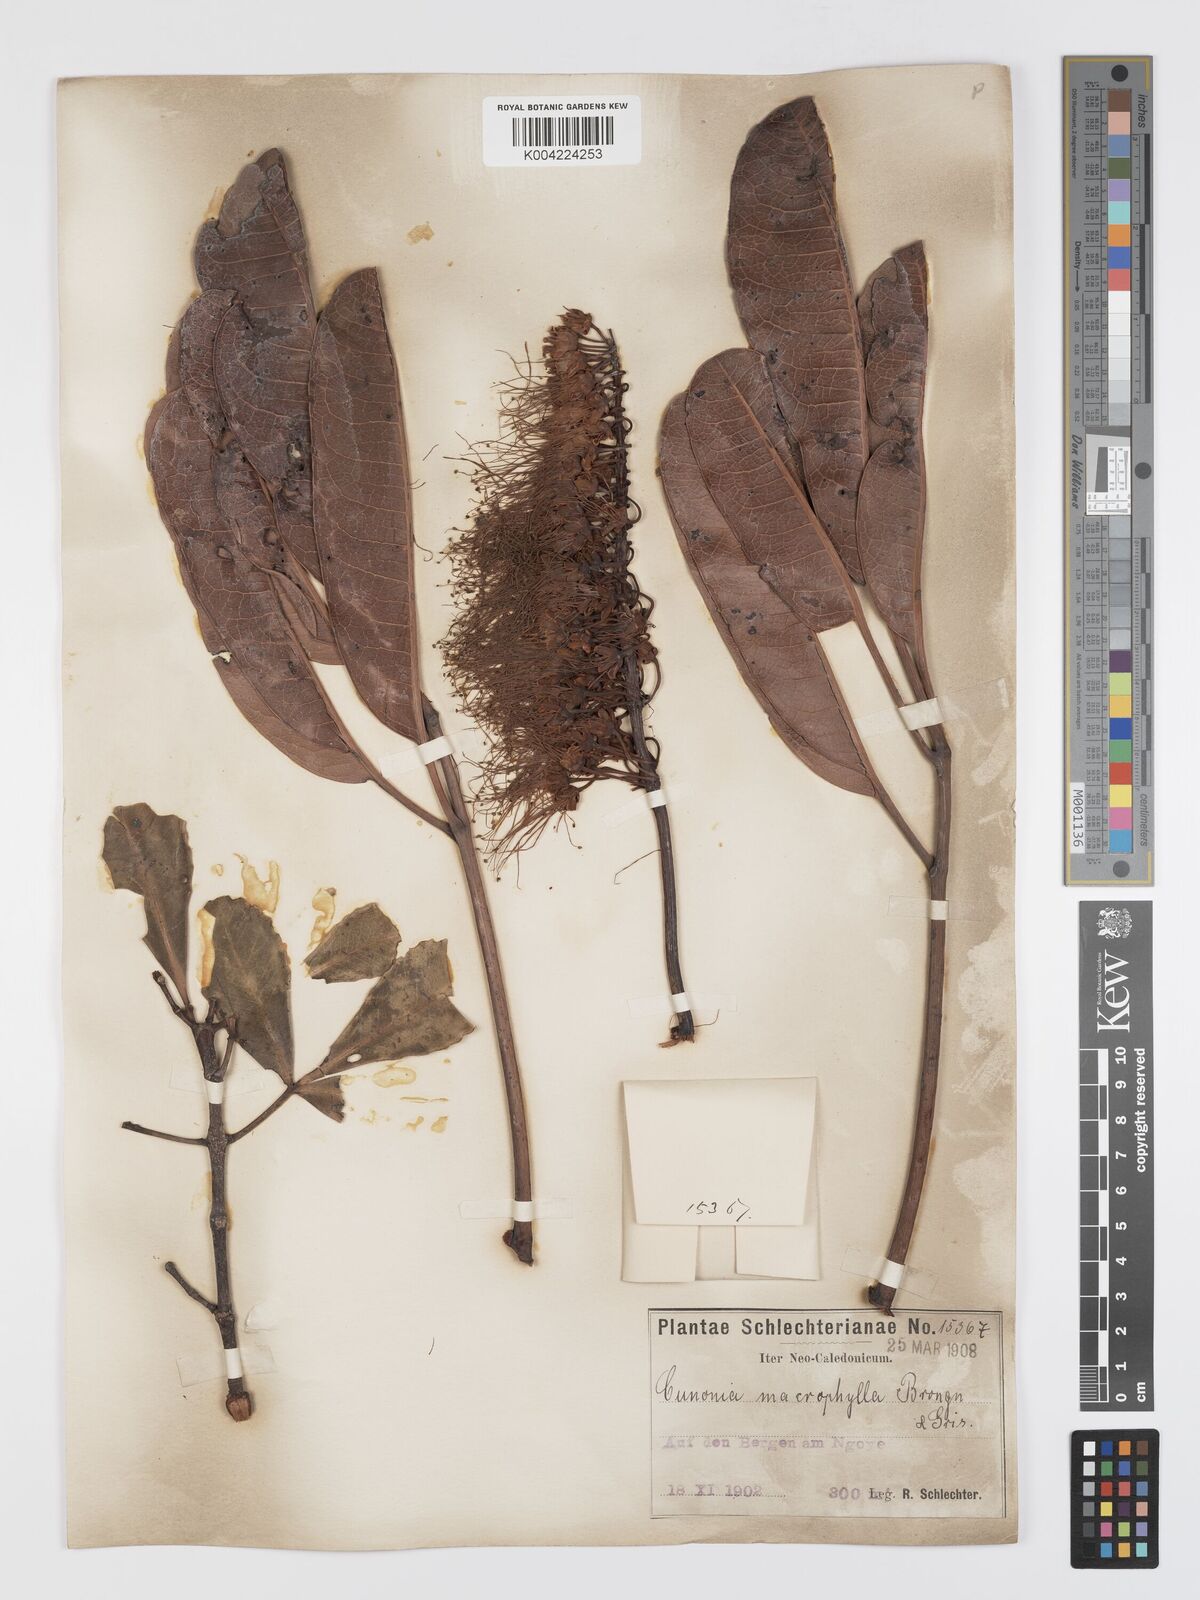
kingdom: Plantae
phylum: Tracheophyta
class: Magnoliopsida
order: Oxalidales
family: Cunoniaceae
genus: Cunonia
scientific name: Cunonia macrophylla
